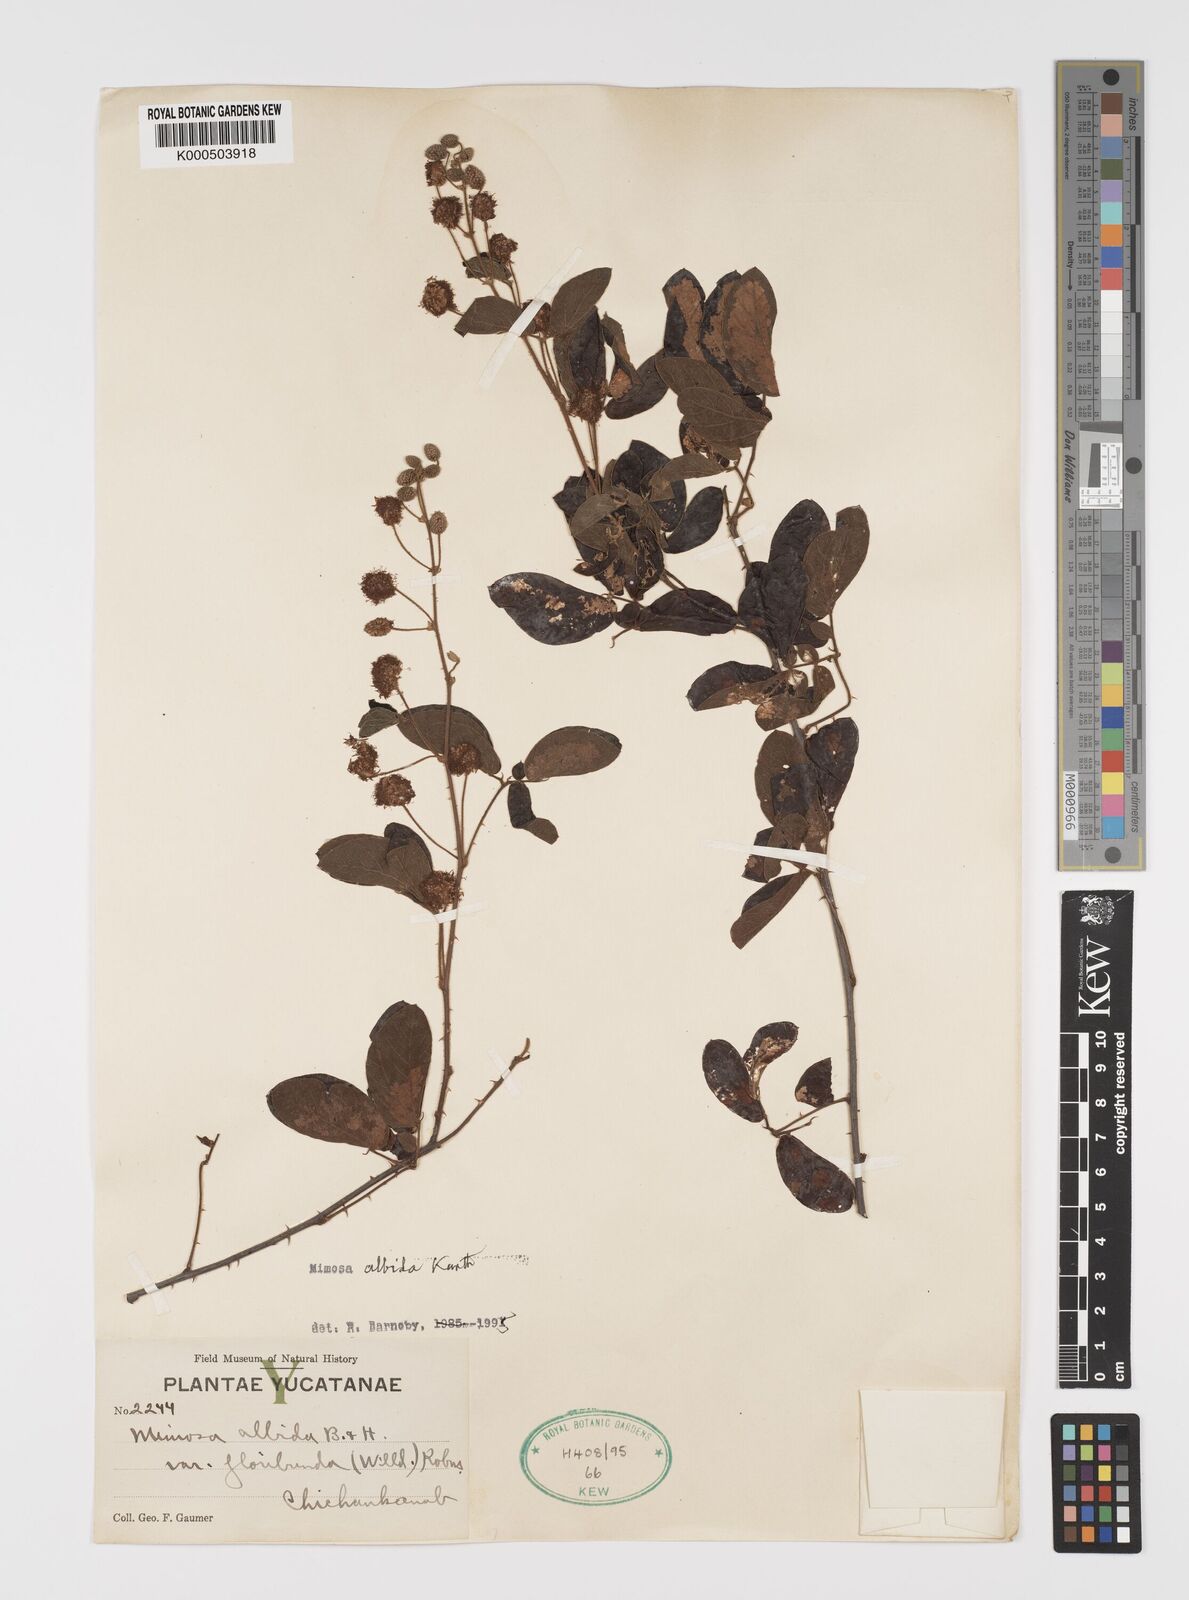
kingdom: Plantae
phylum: Tracheophyta
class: Magnoliopsida
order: Fabales
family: Fabaceae
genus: Mimosa
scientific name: Mimosa albida
